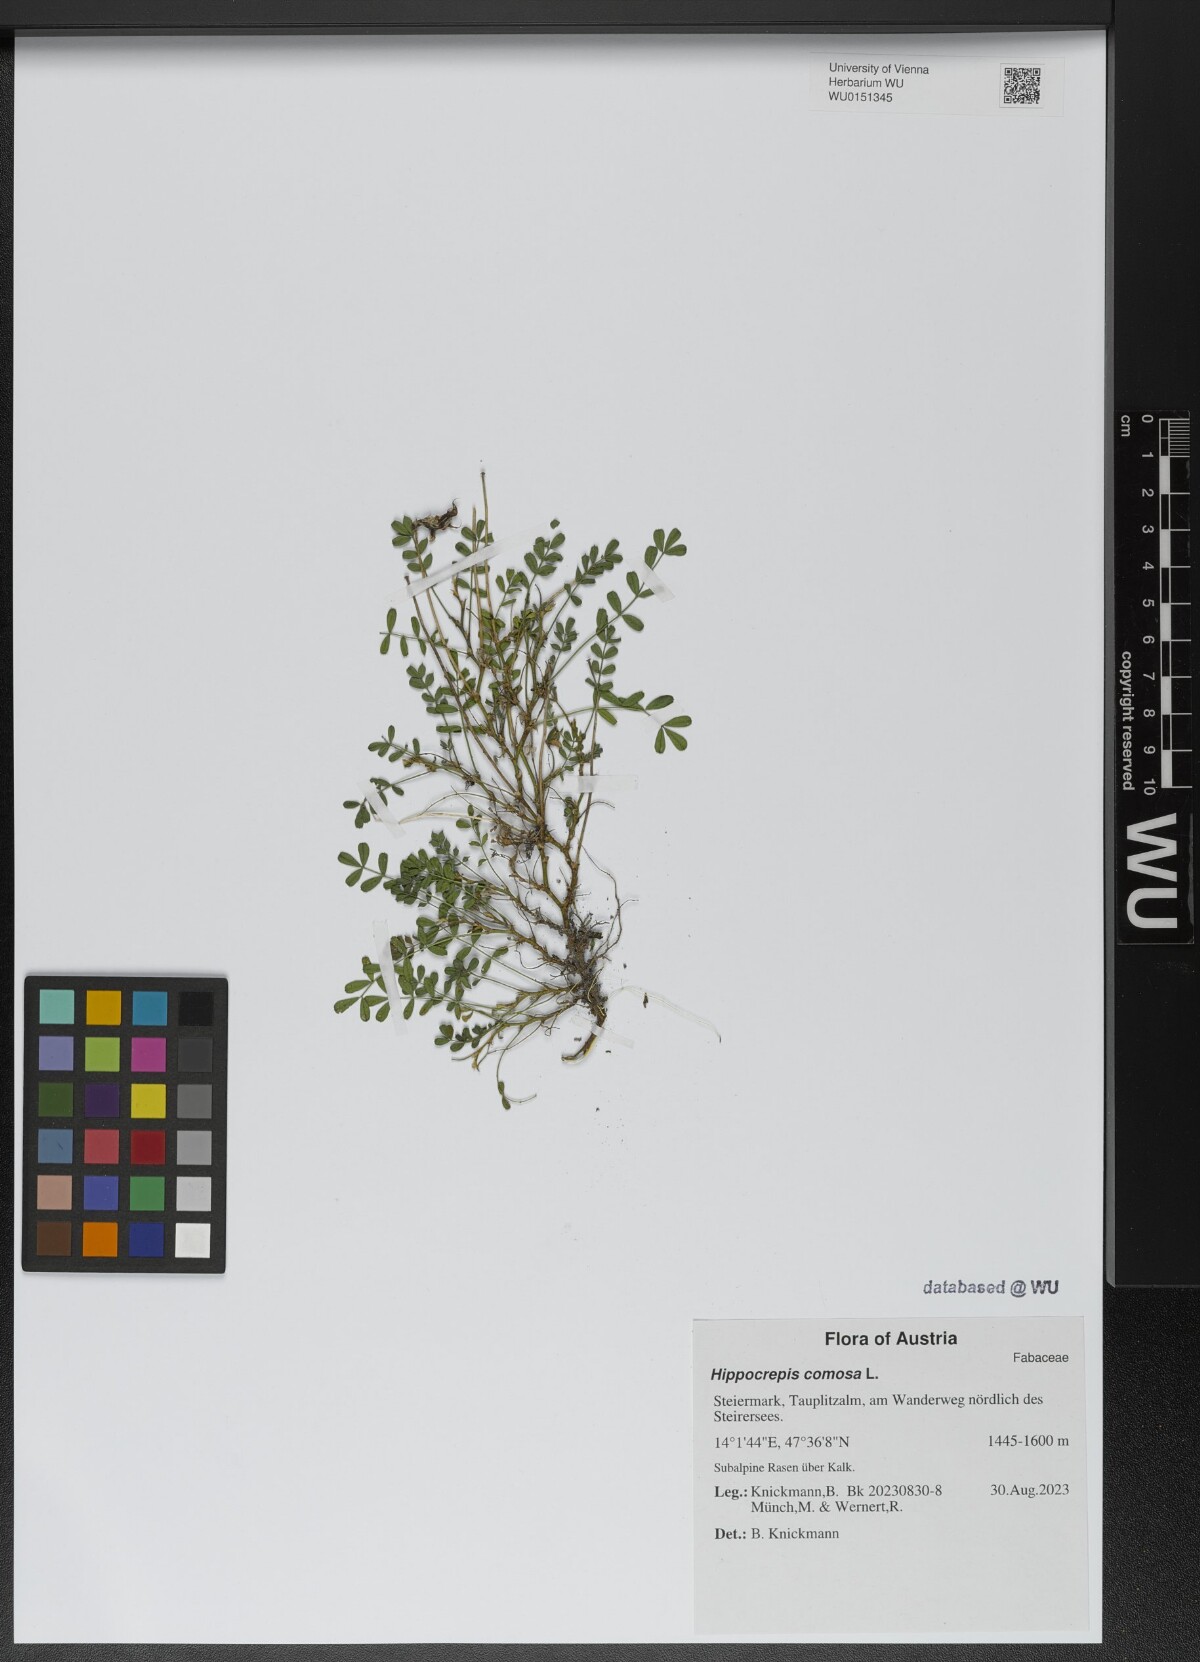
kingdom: Plantae
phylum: Tracheophyta
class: Magnoliopsida
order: Fabales
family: Fabaceae
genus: Hippocrepis
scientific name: Hippocrepis comosa
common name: Horseshoe vetch
